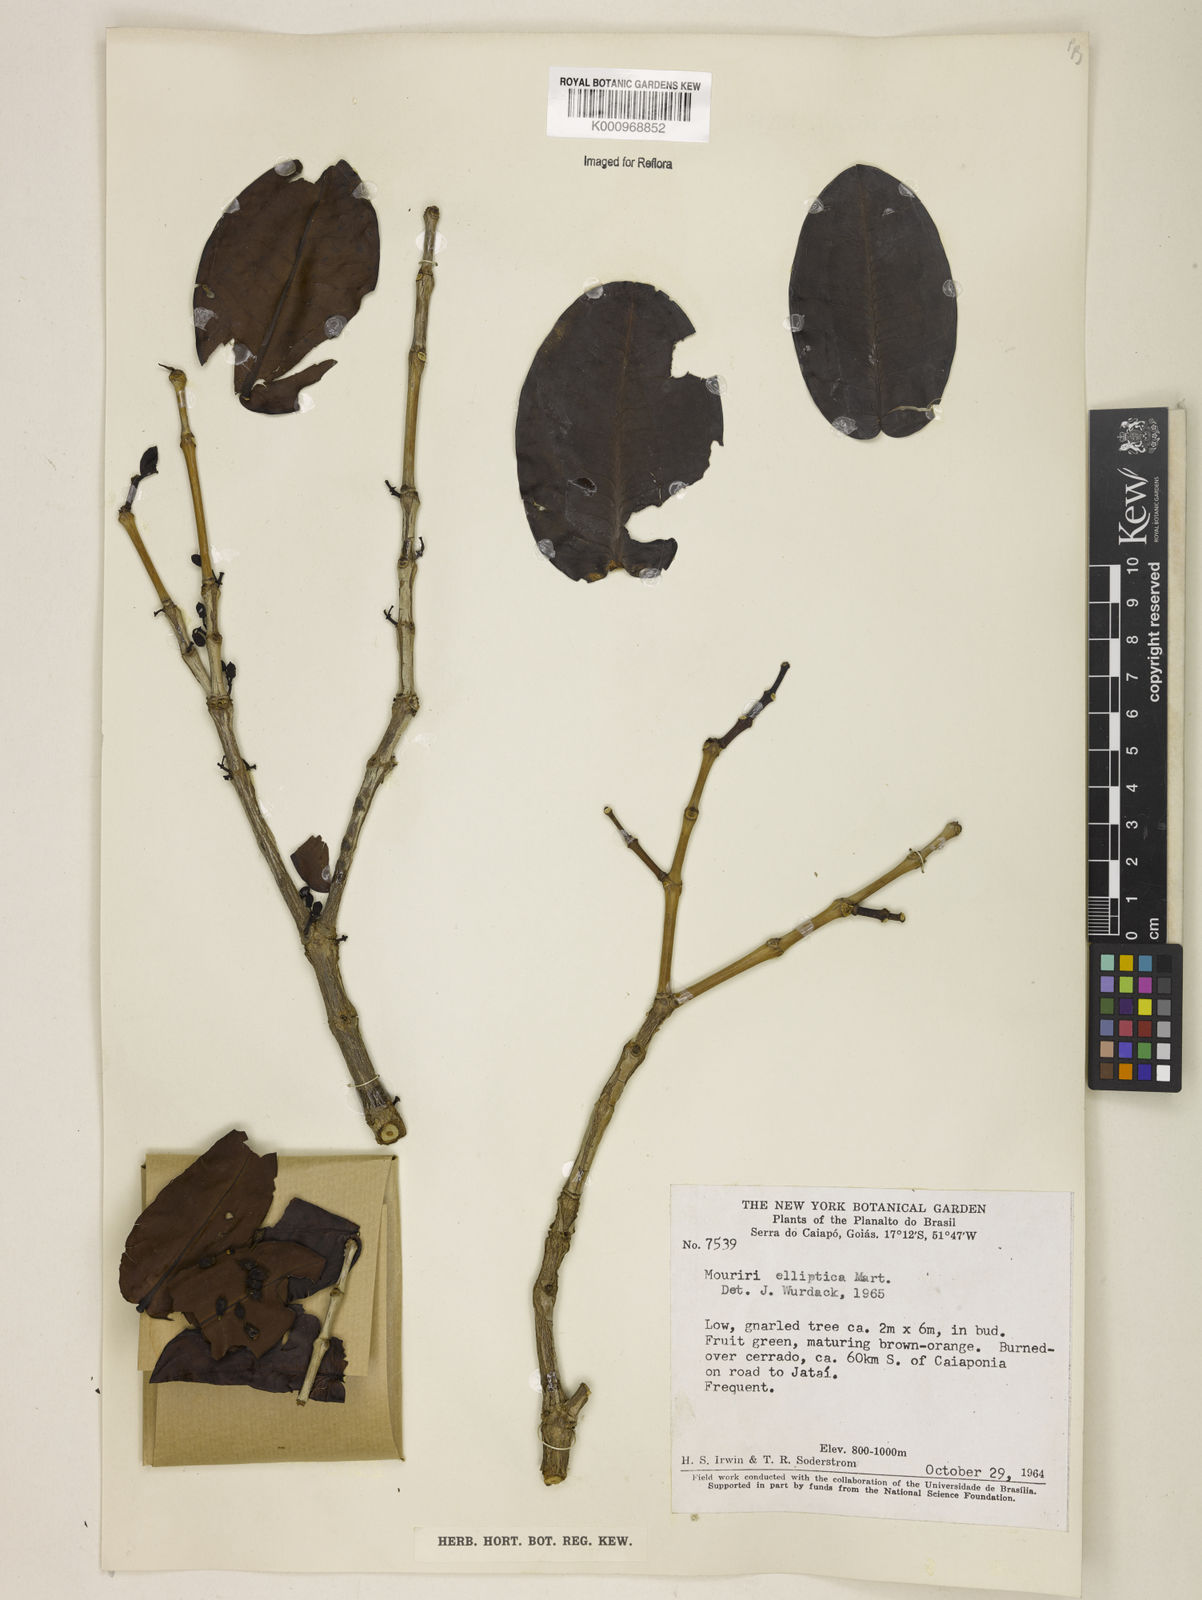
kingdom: Plantae
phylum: Tracheophyta
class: Magnoliopsida
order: Myrtales
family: Melastomataceae
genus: Mouriri
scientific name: Mouriri elliptica
